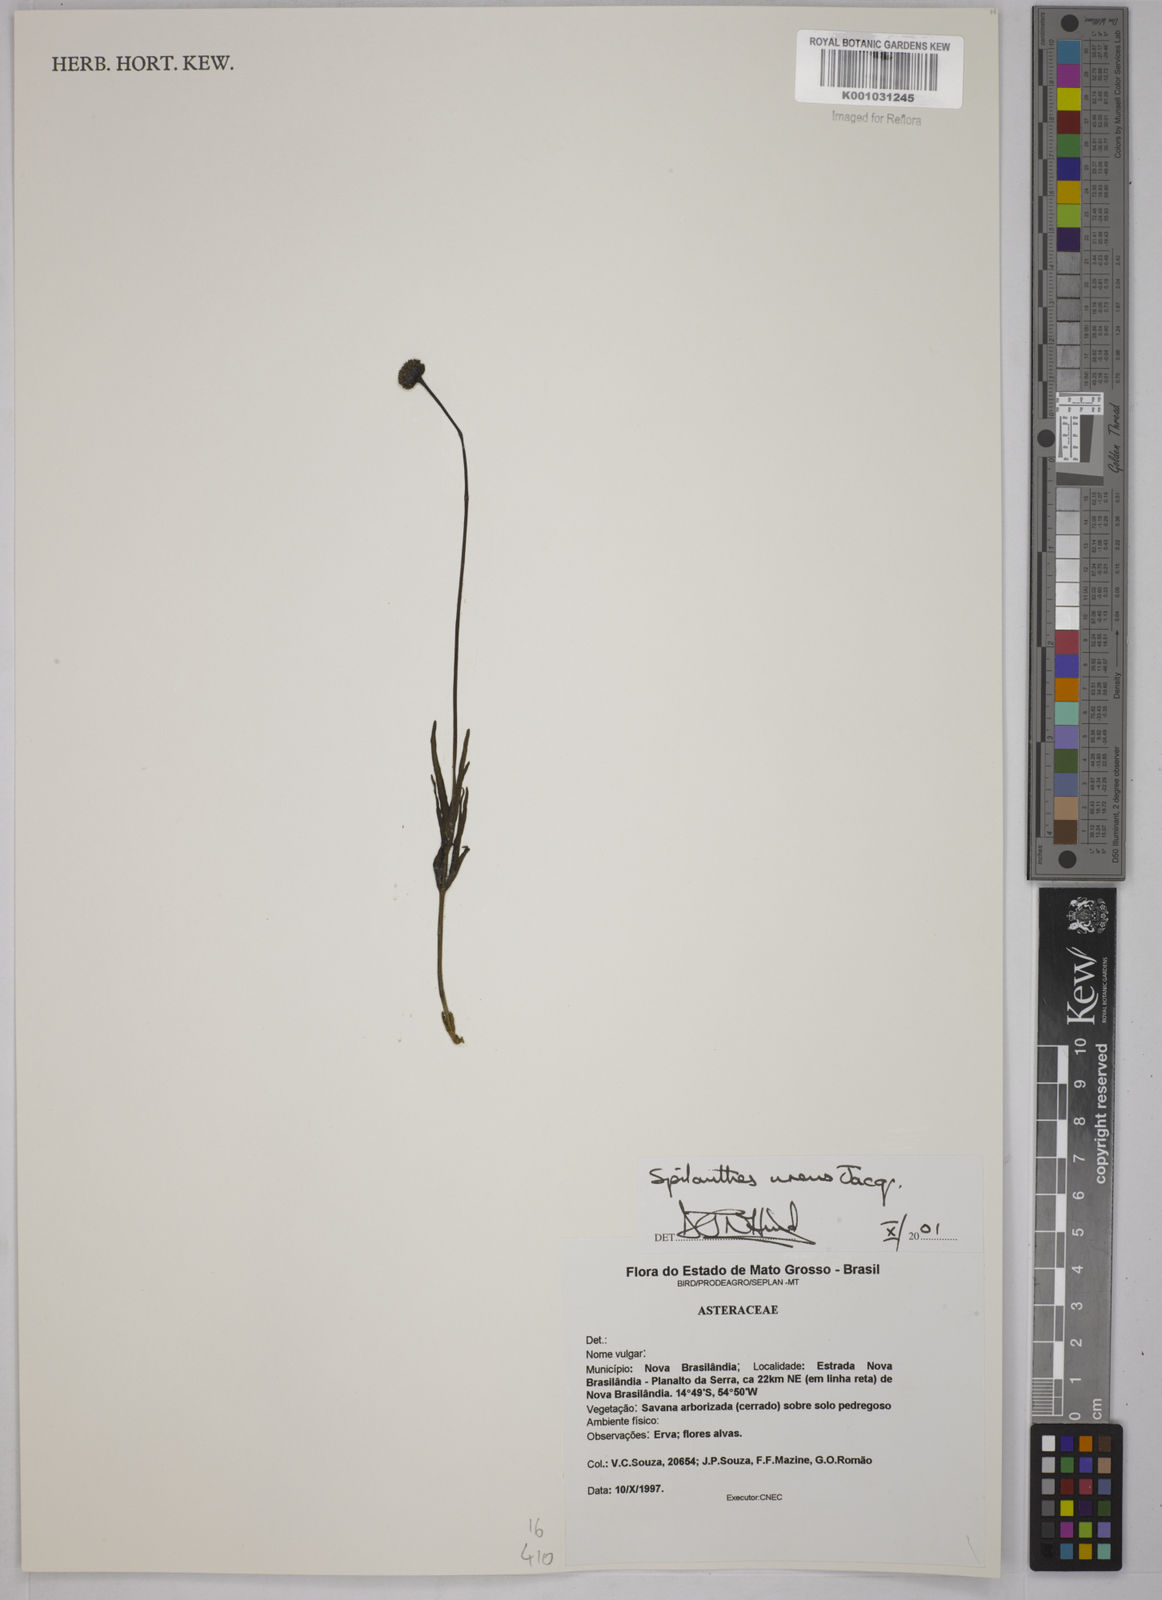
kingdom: Plantae
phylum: Tracheophyta
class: Magnoliopsida
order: Asterales
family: Asteraceae
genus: Spilanthes
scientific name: Spilanthes urens
